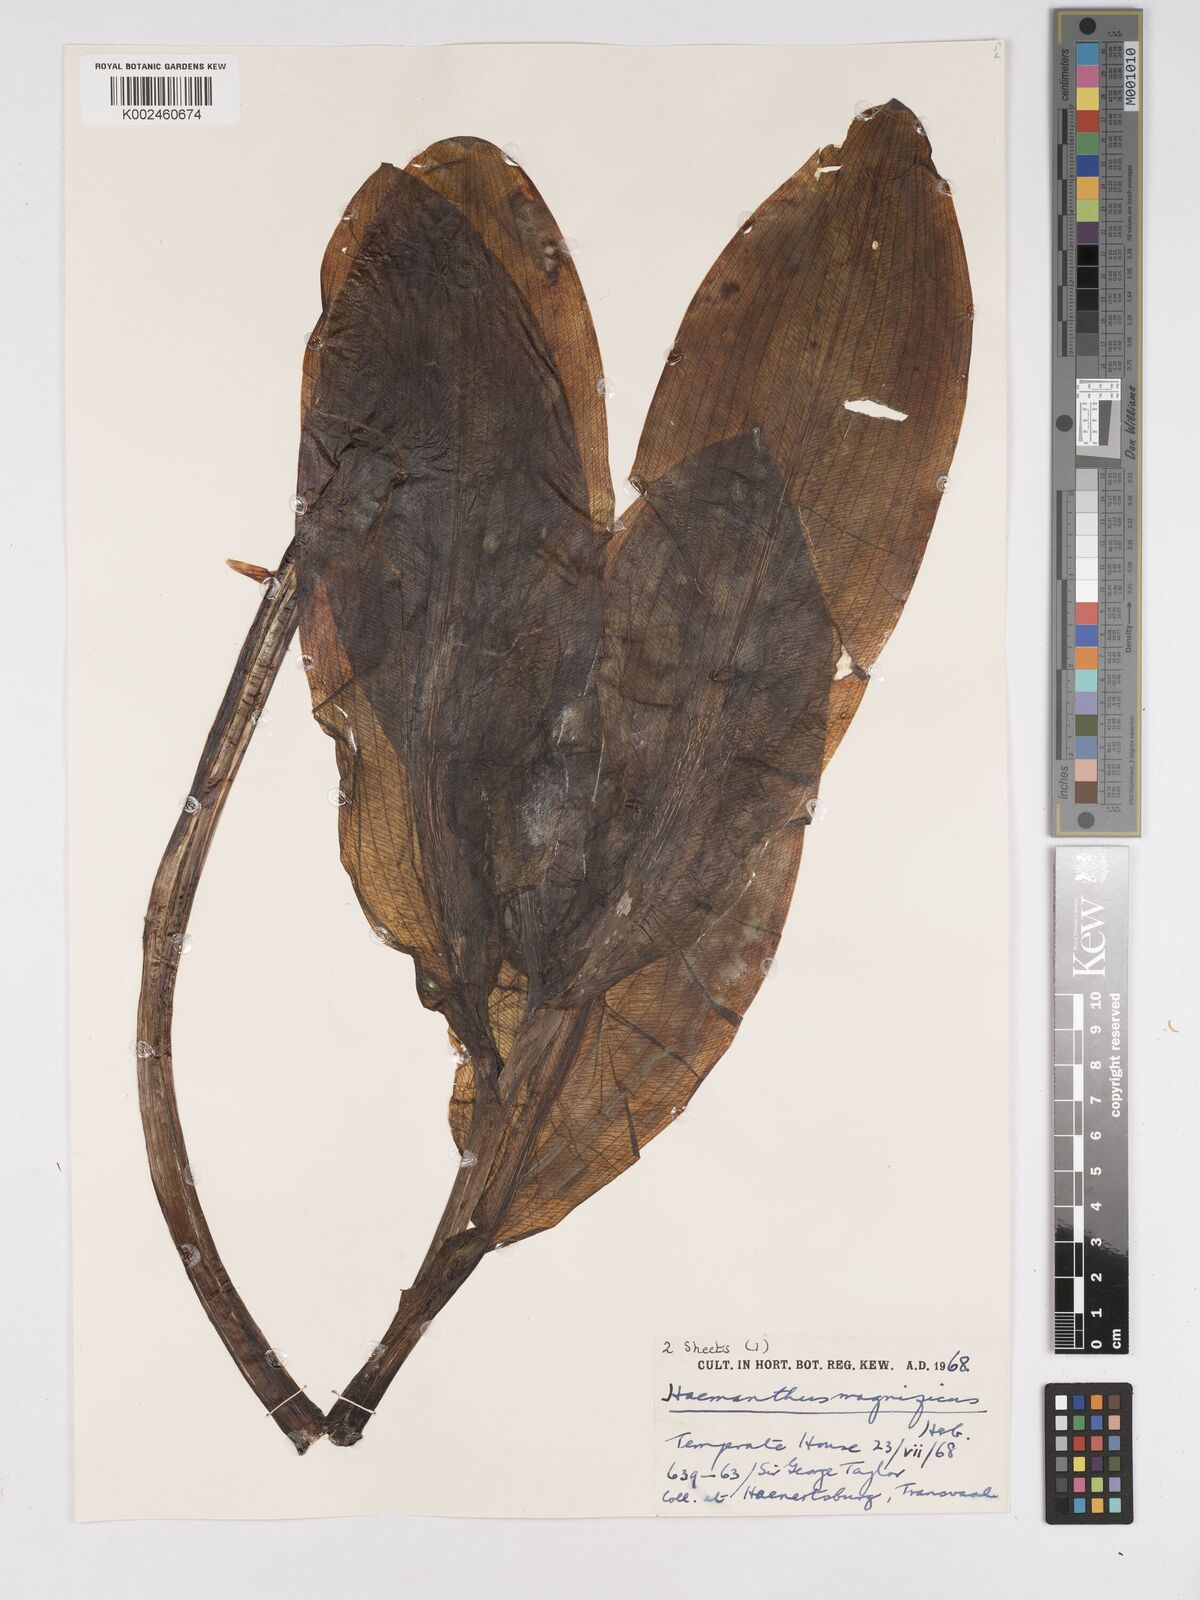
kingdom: Plantae
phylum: Tracheophyta
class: Liliopsida
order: Asparagales
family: Amaryllidaceae
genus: Scadoxus
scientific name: Scadoxus puniceus
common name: Royal-paintbrush
